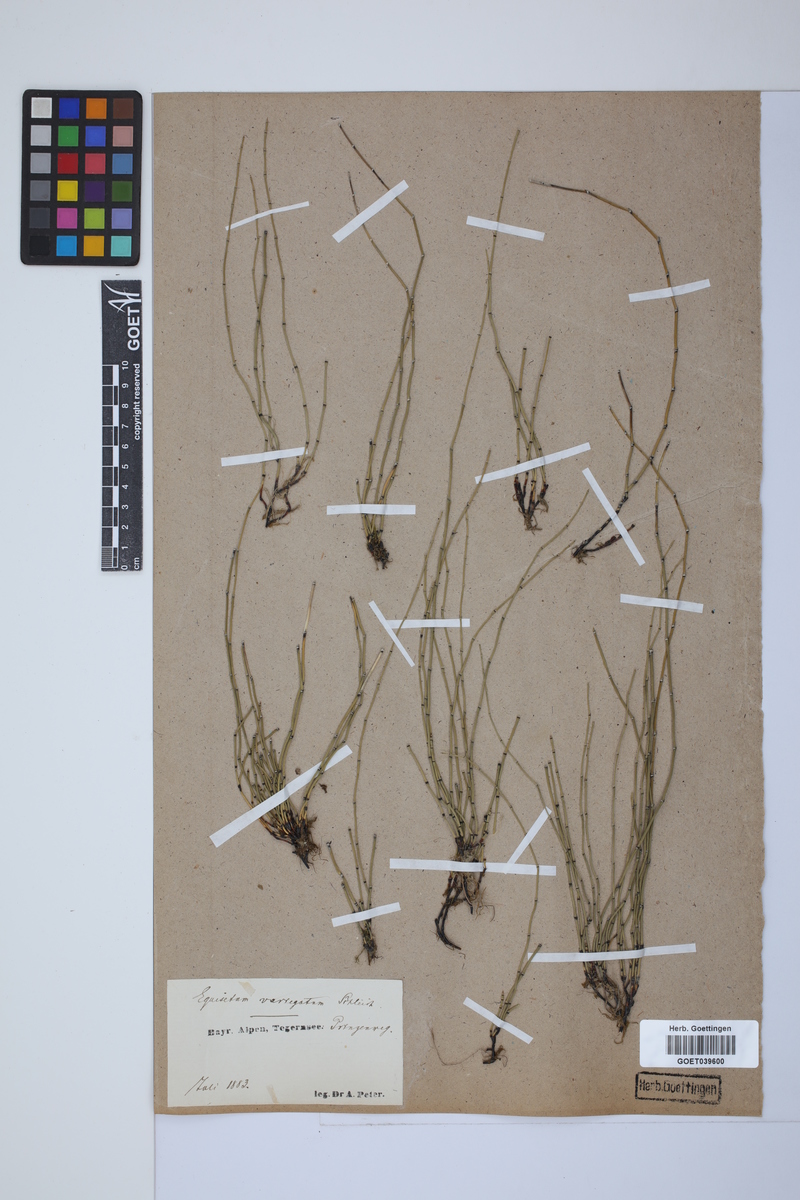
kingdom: Plantae
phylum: Tracheophyta
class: Polypodiopsida
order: Equisetales
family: Equisetaceae
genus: Equisetum
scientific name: Equisetum variegatum
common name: Variegated horsetail
